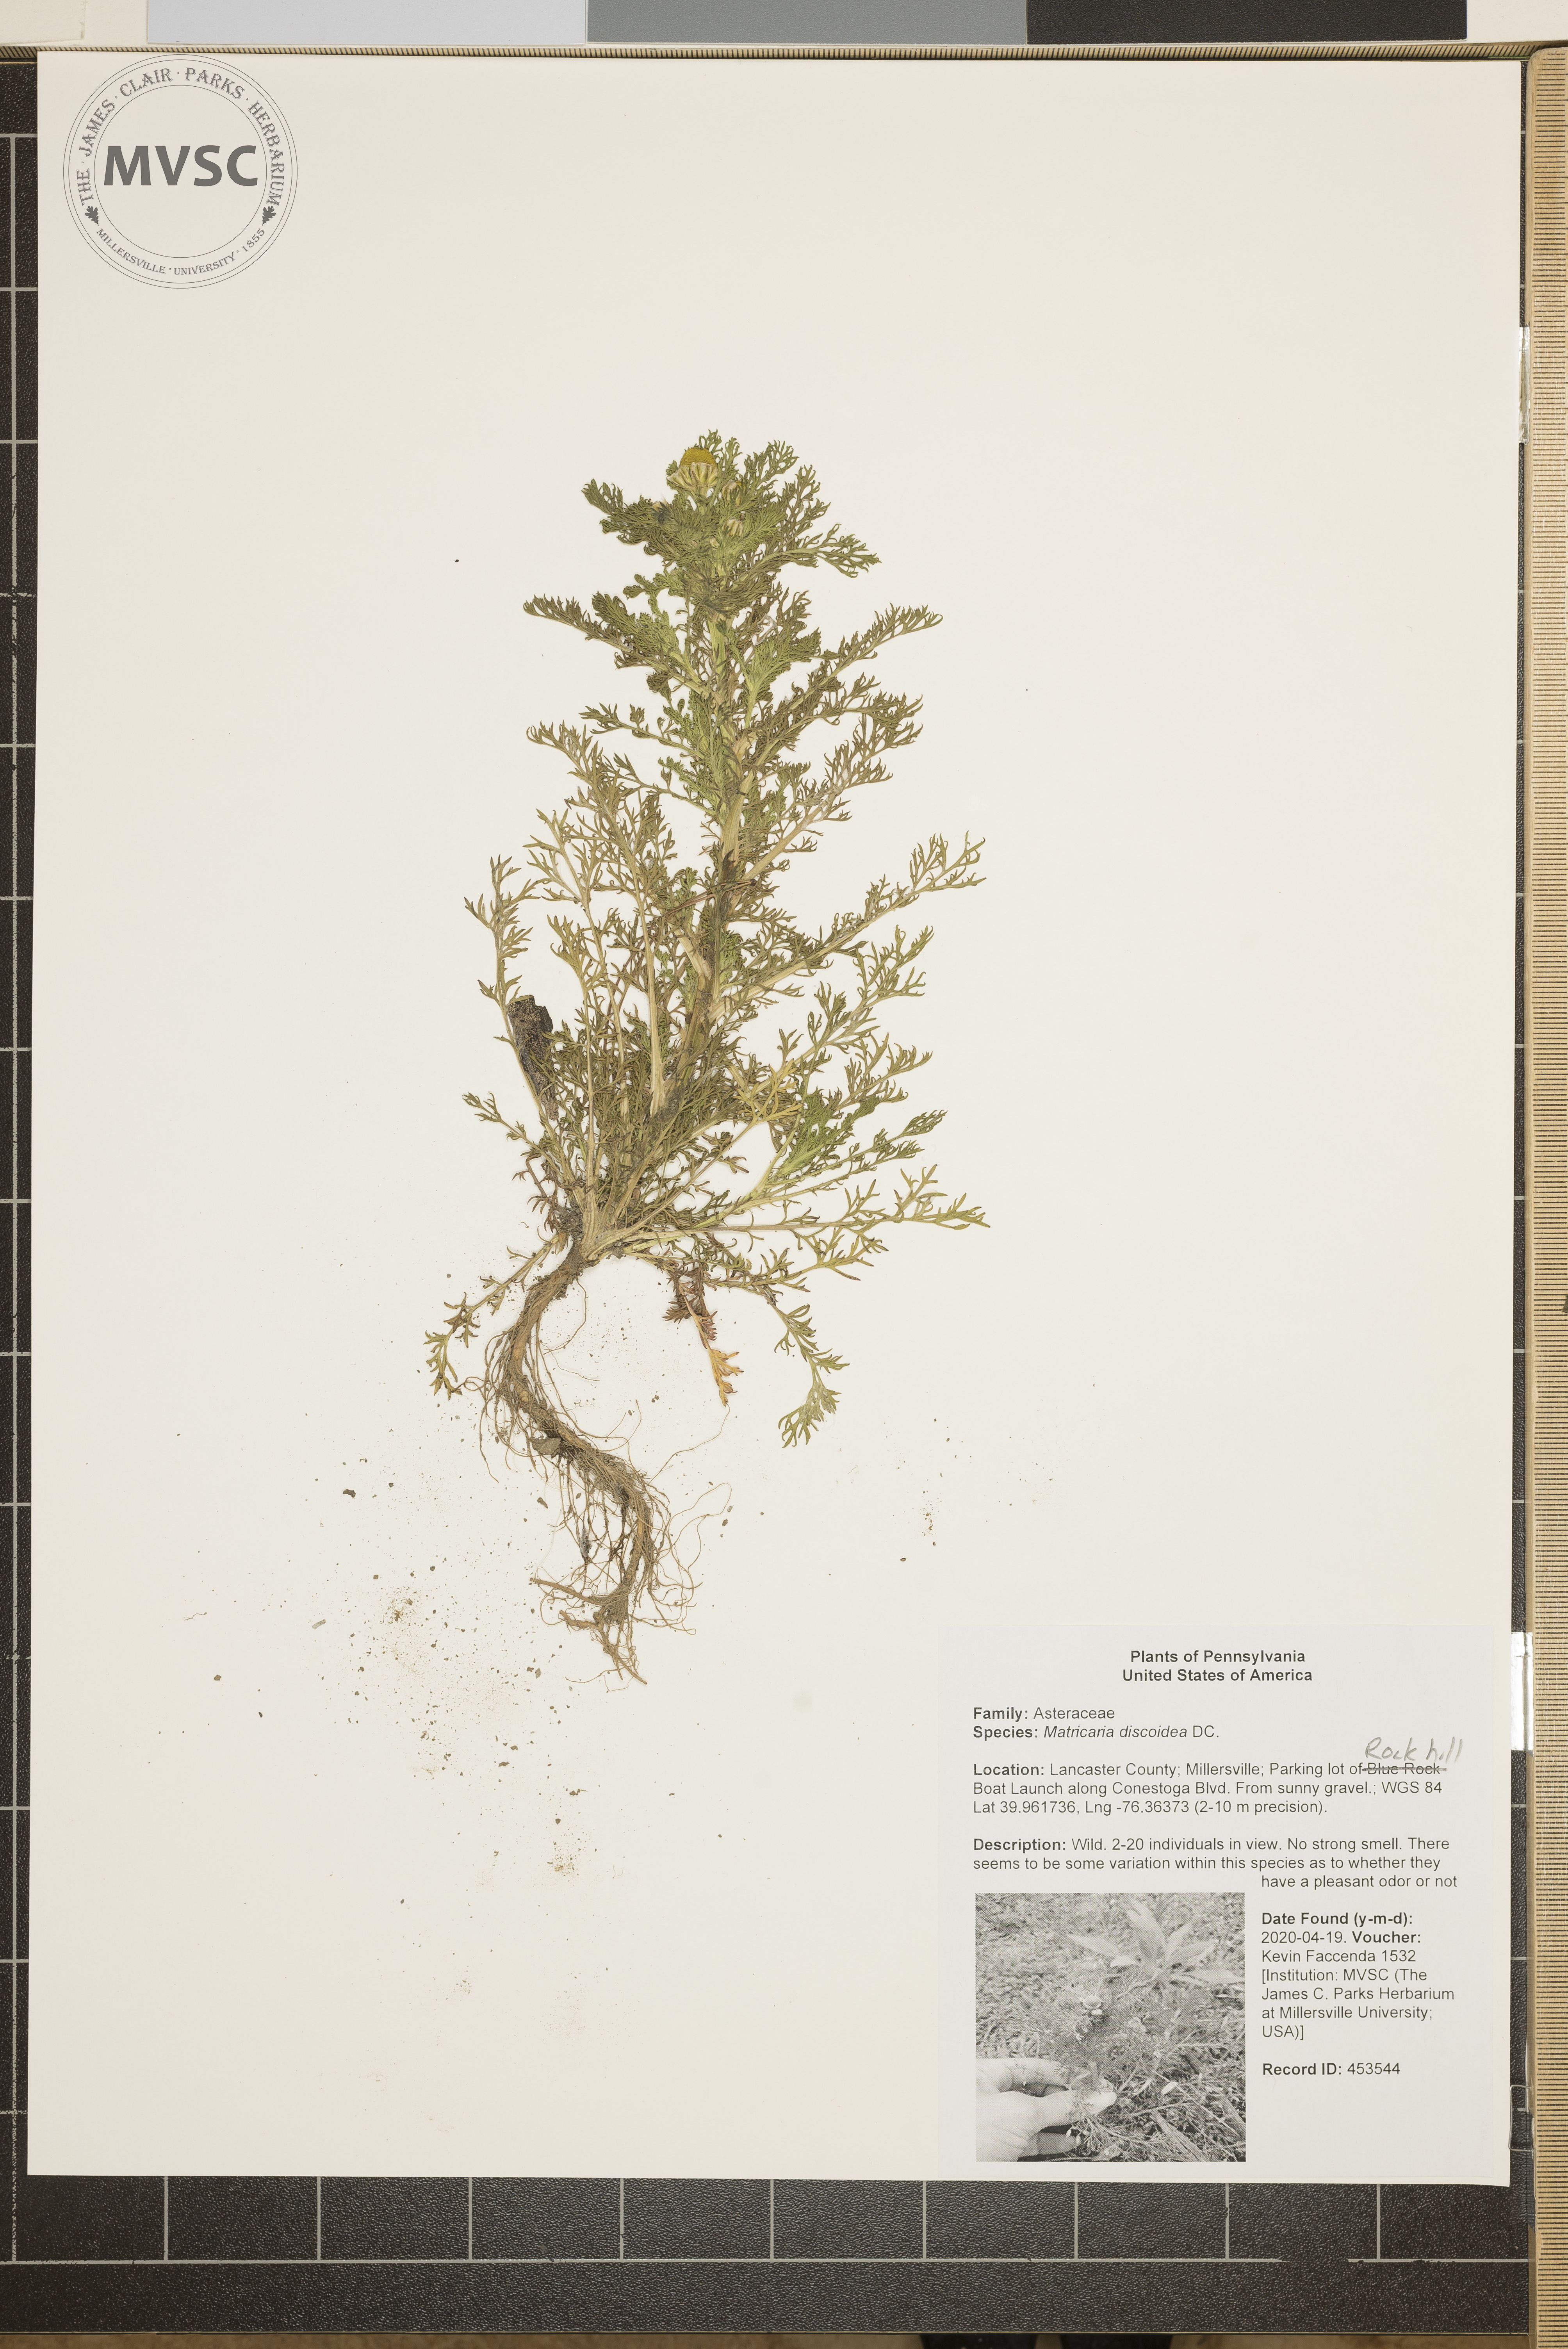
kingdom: Plantae
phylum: Tracheophyta
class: Magnoliopsida
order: Asterales
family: Asteraceae
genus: Matricaria
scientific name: Matricaria discoidea
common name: Disc mayweed
